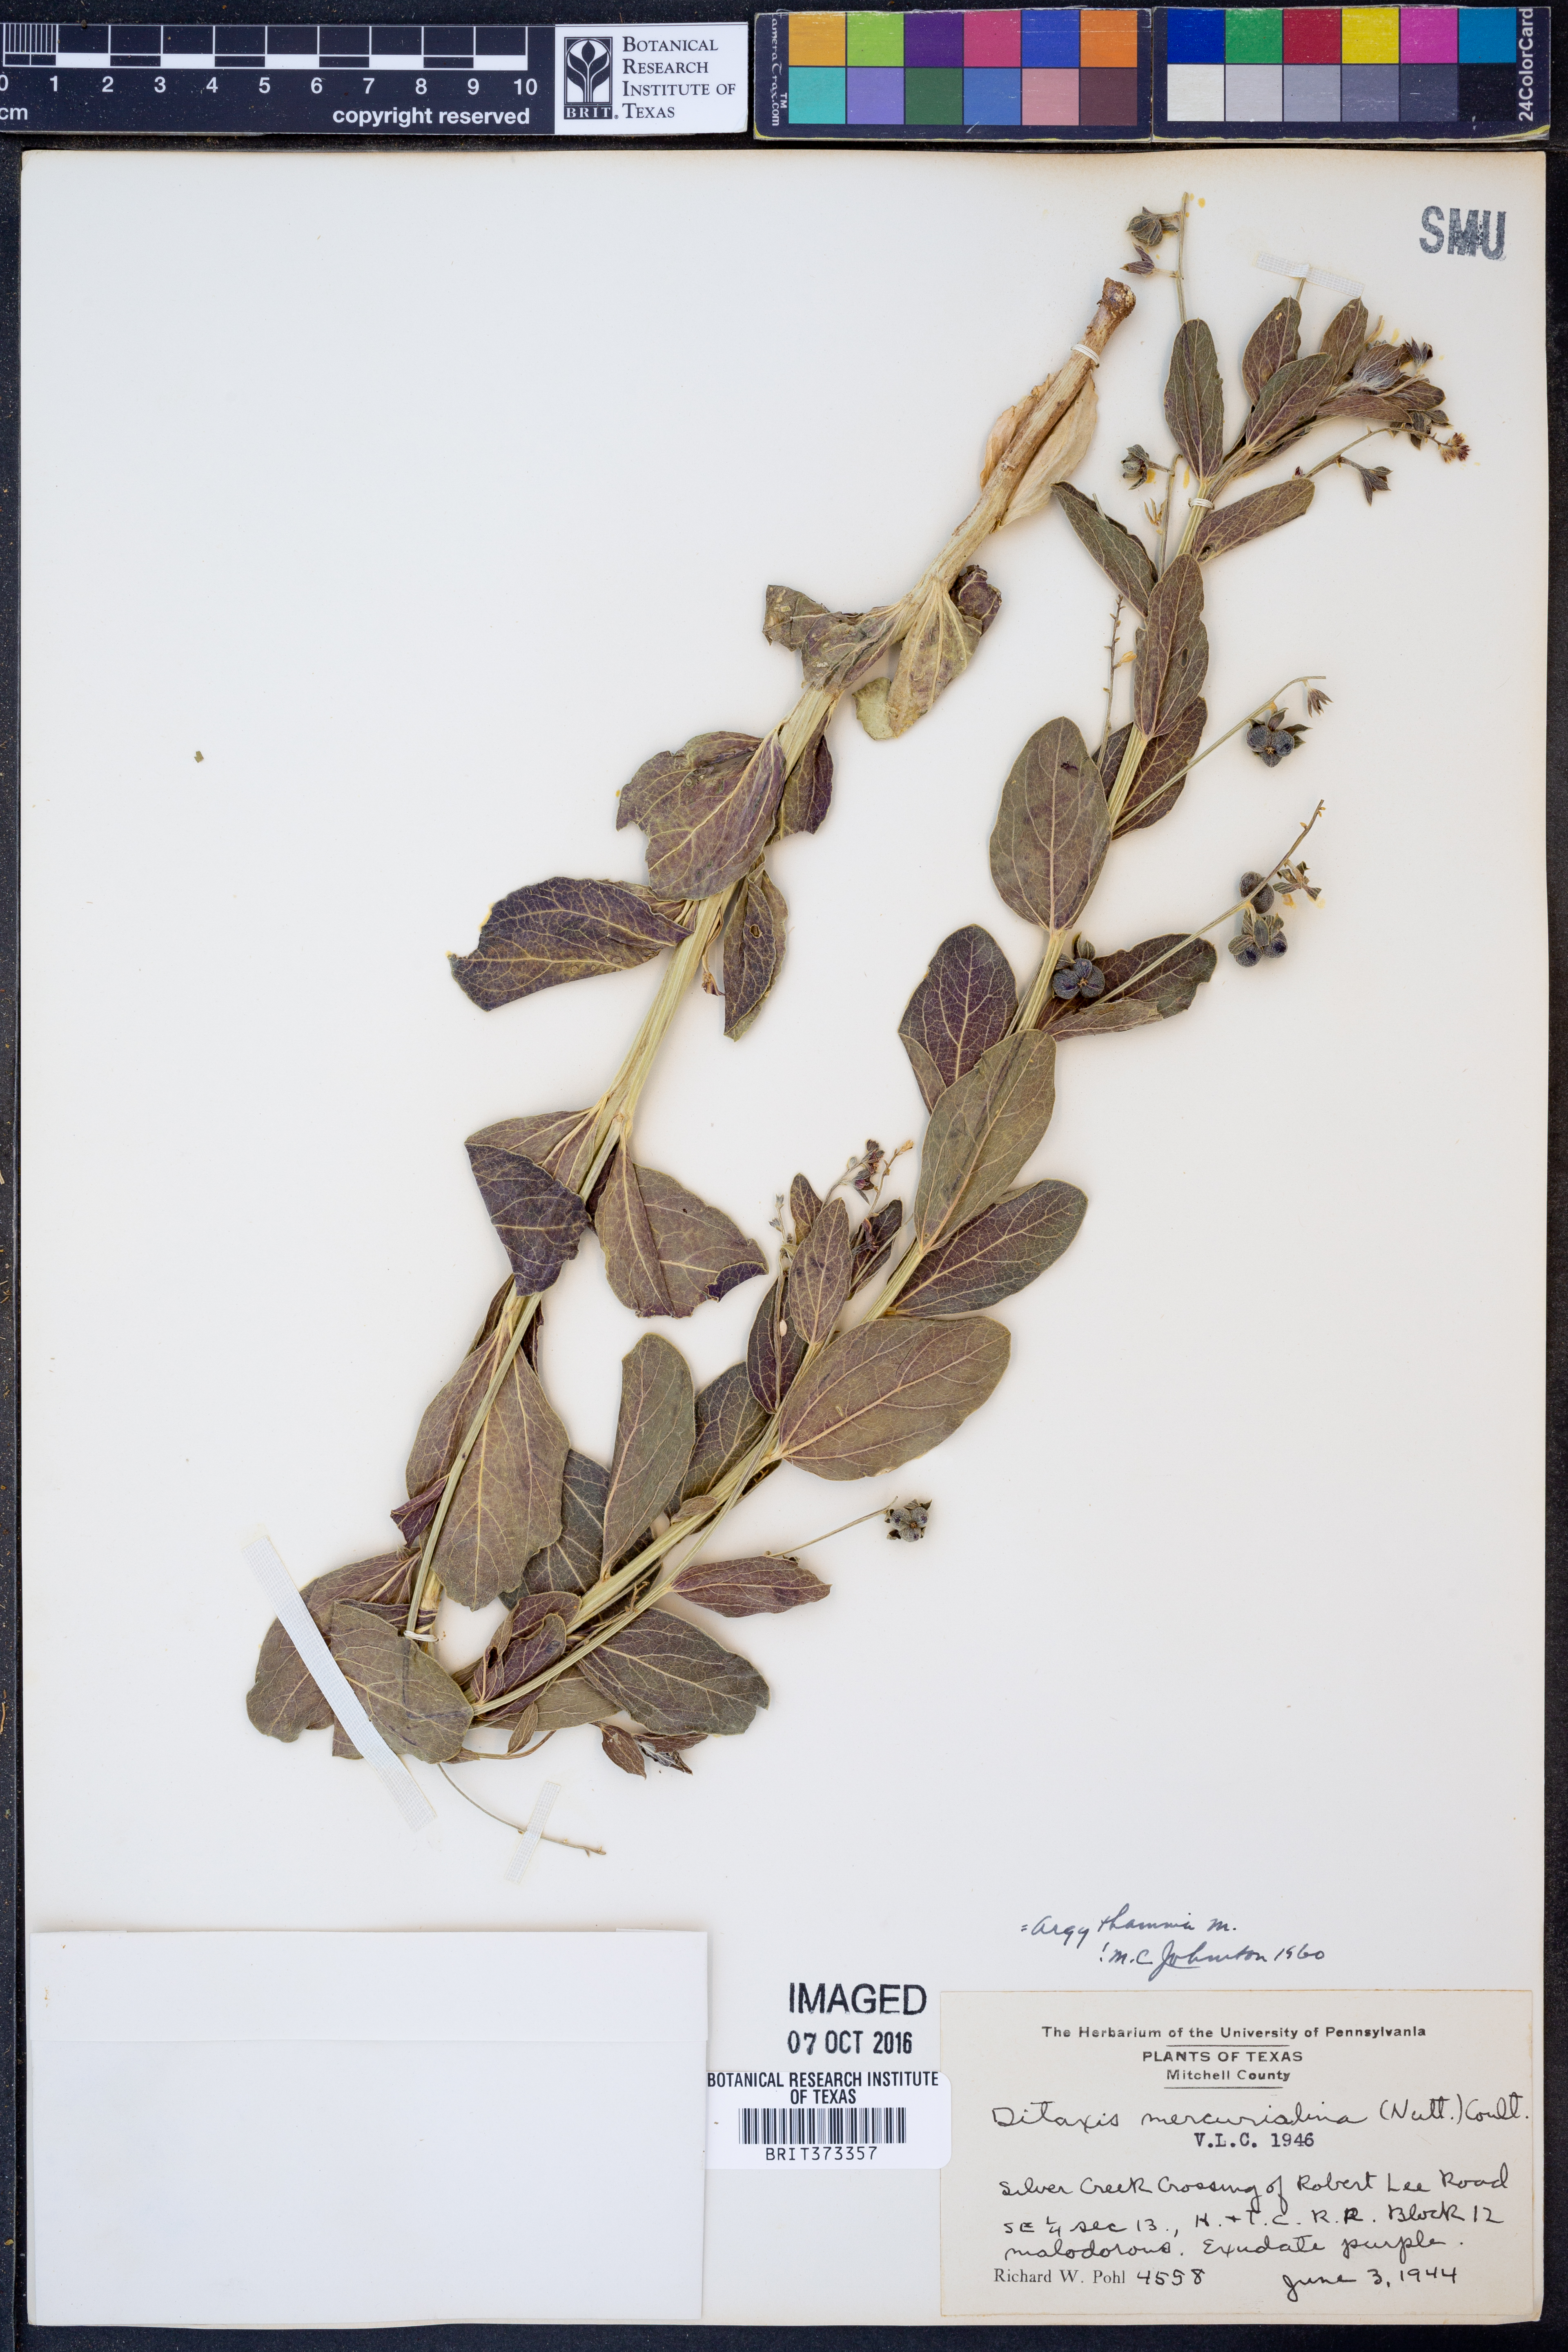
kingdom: Plantae
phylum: Tracheophyta
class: Magnoliopsida
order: Malpighiales
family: Euphorbiaceae
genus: Ditaxis
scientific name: Ditaxis mercurialina
